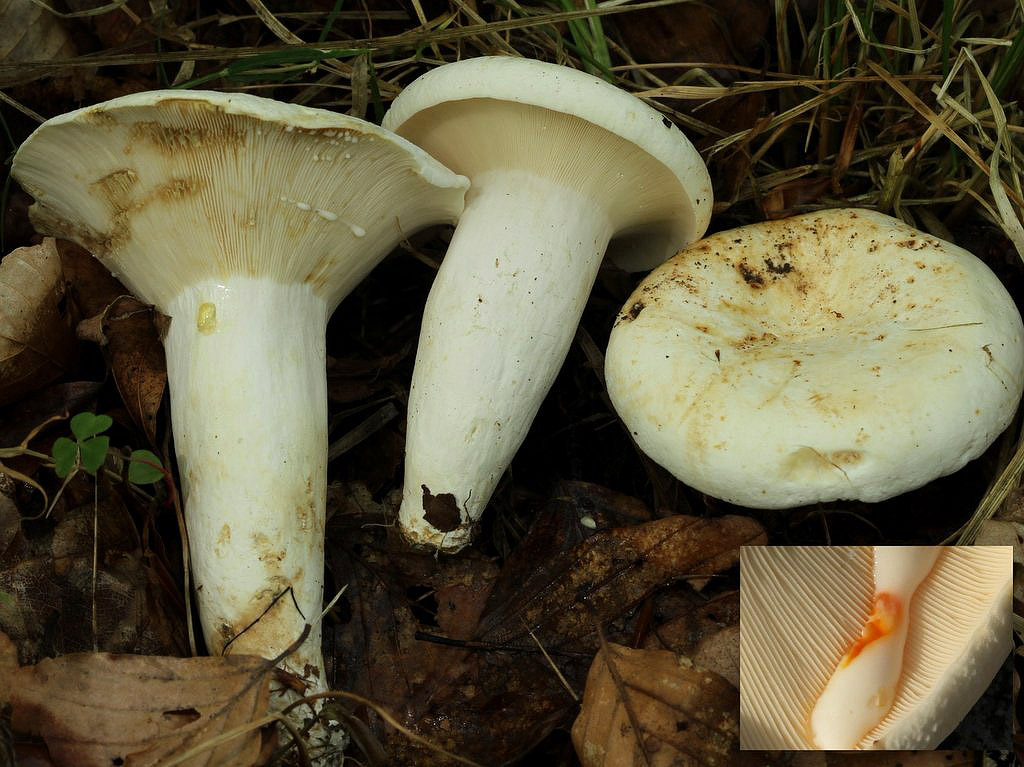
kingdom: Fungi
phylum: Basidiomycota
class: Agaricomycetes
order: Russulales
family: Russulaceae
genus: Lactifluus
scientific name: Lactifluus glaucescens
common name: grønplettet mælkehat
